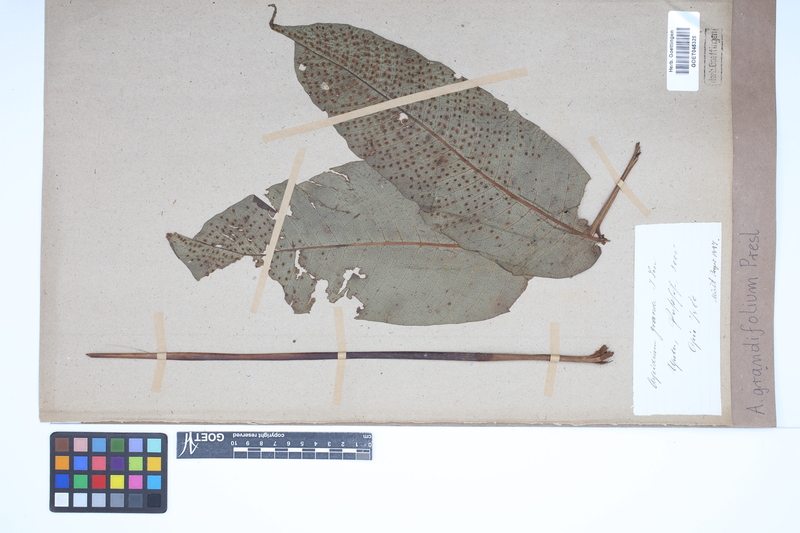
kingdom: Plantae
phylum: Tracheophyta
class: Polypodiopsida
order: Polypodiales
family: Tectariaceae
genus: Tectaria
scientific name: Tectaria crenata
